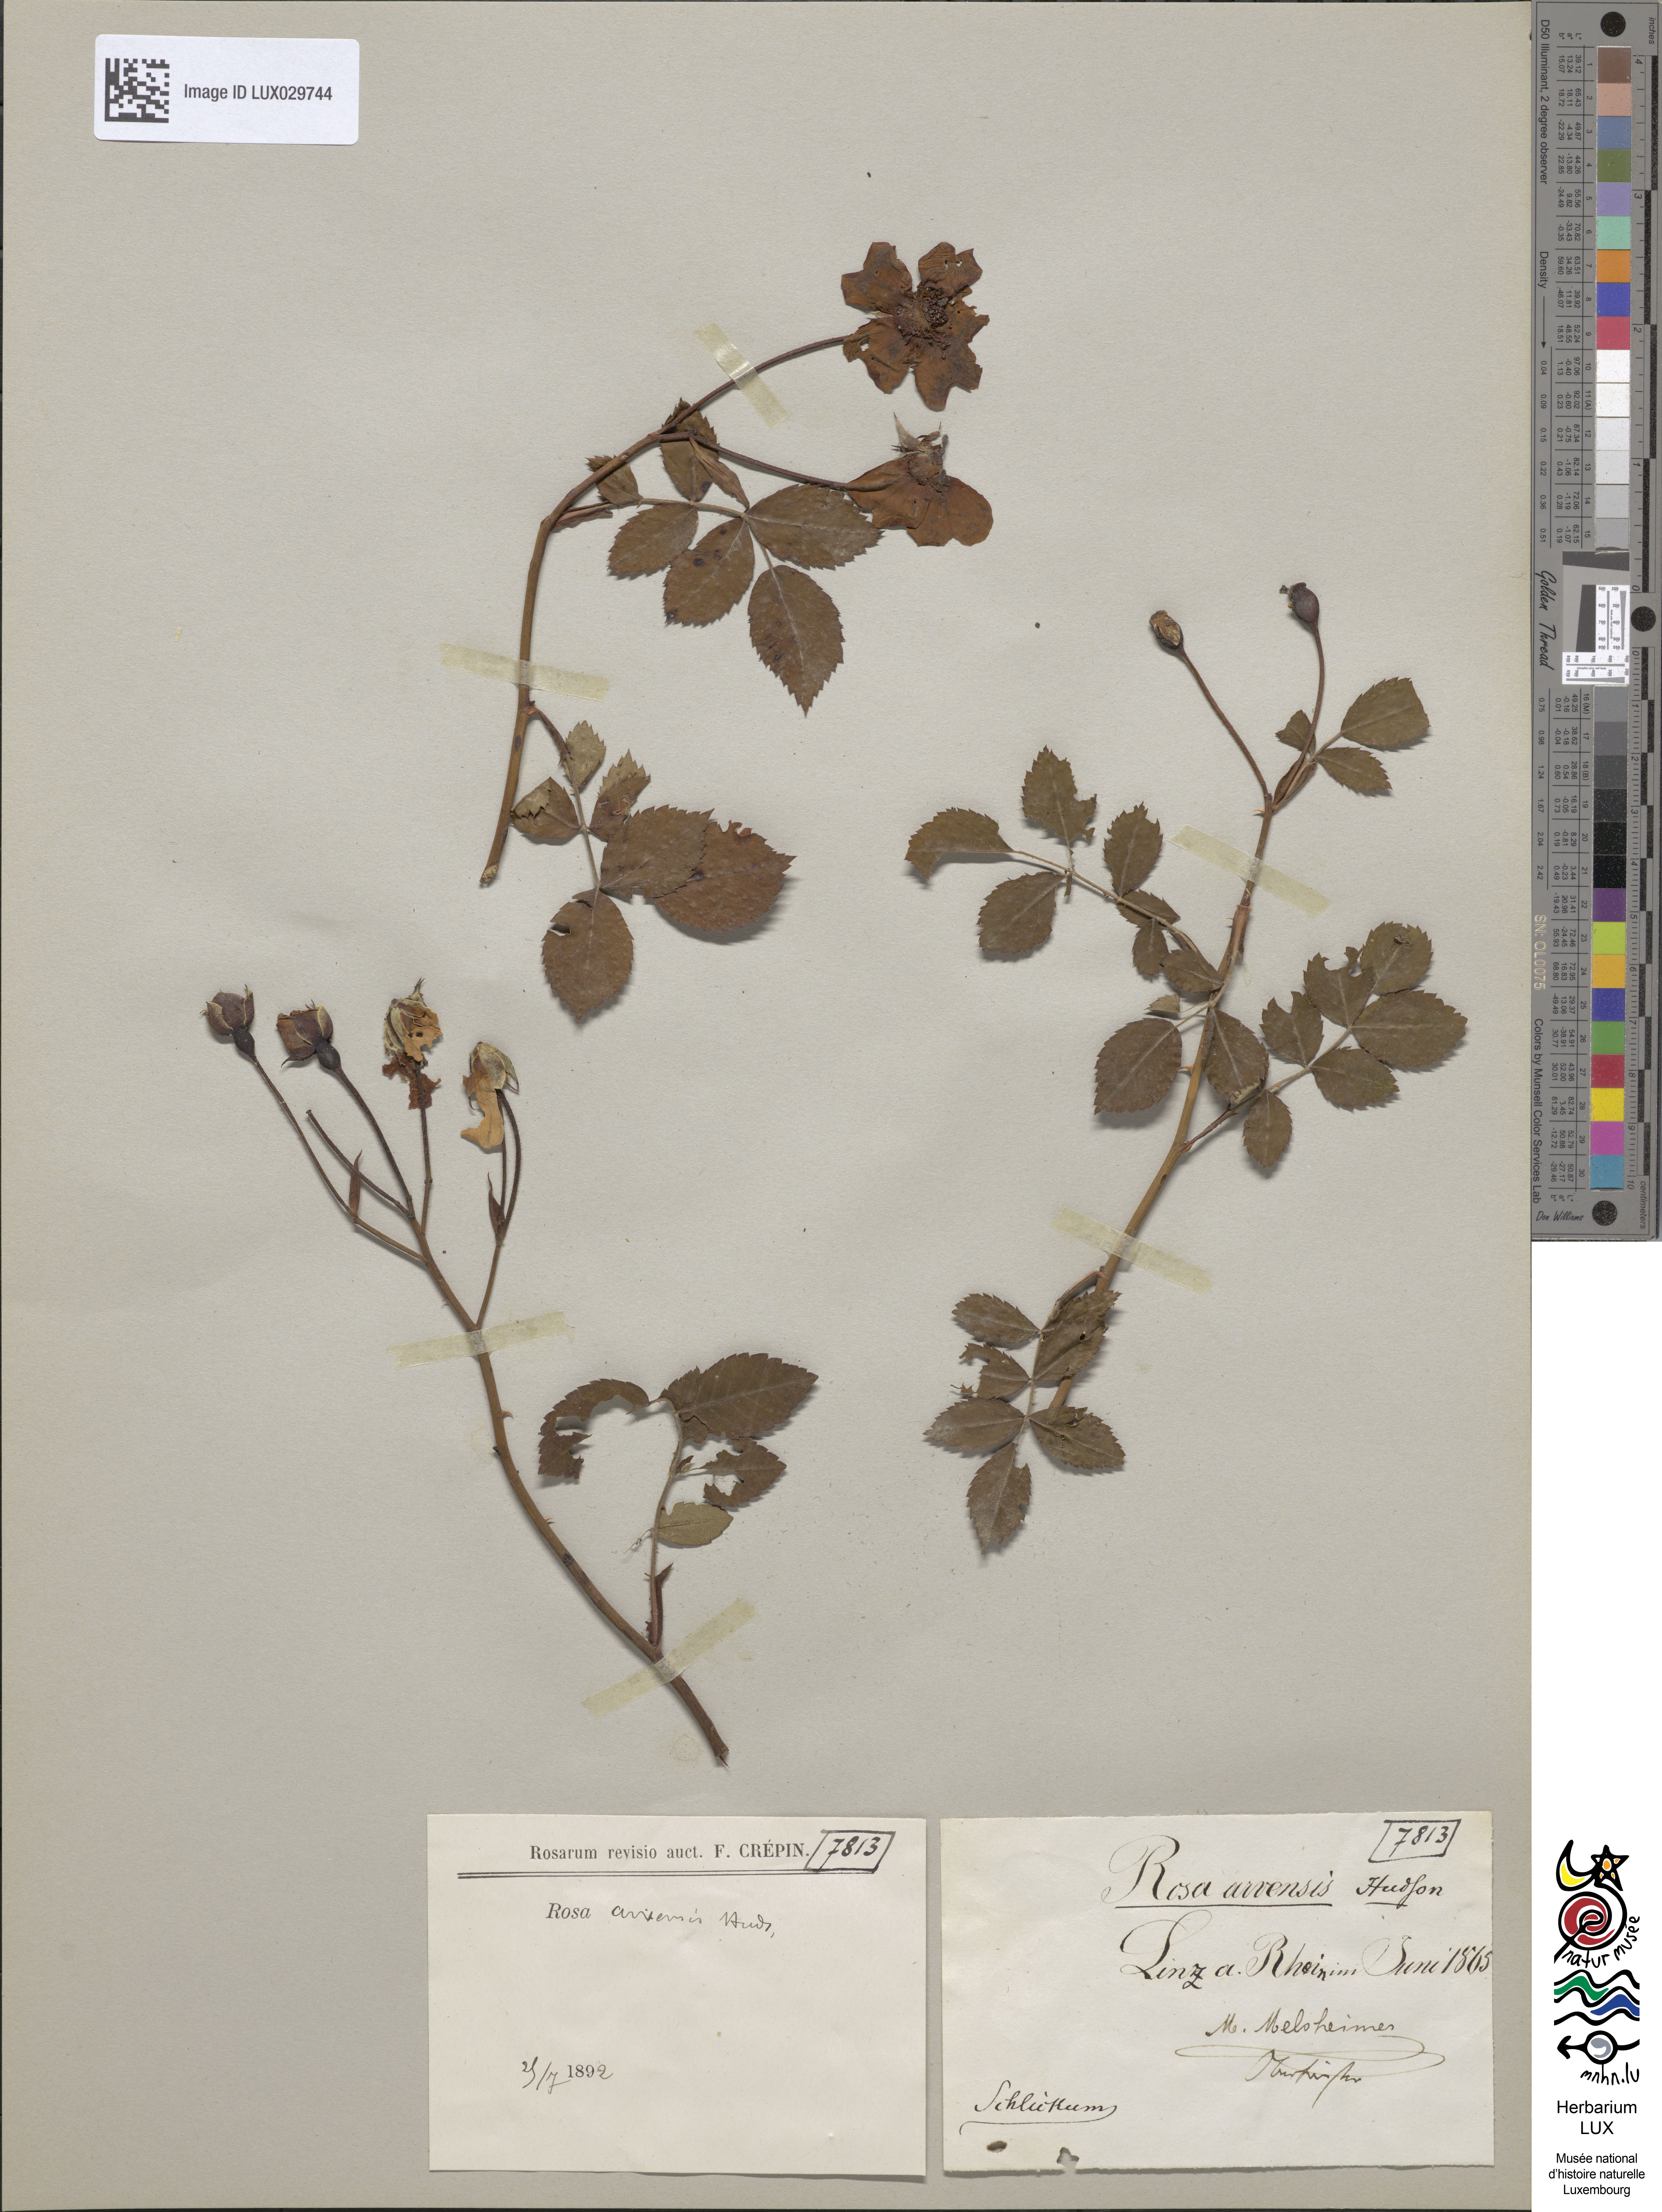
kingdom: Plantae
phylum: Tracheophyta
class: Magnoliopsida
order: Rosales
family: Rosaceae
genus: Rosa
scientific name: Rosa arvensis
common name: Field rose
